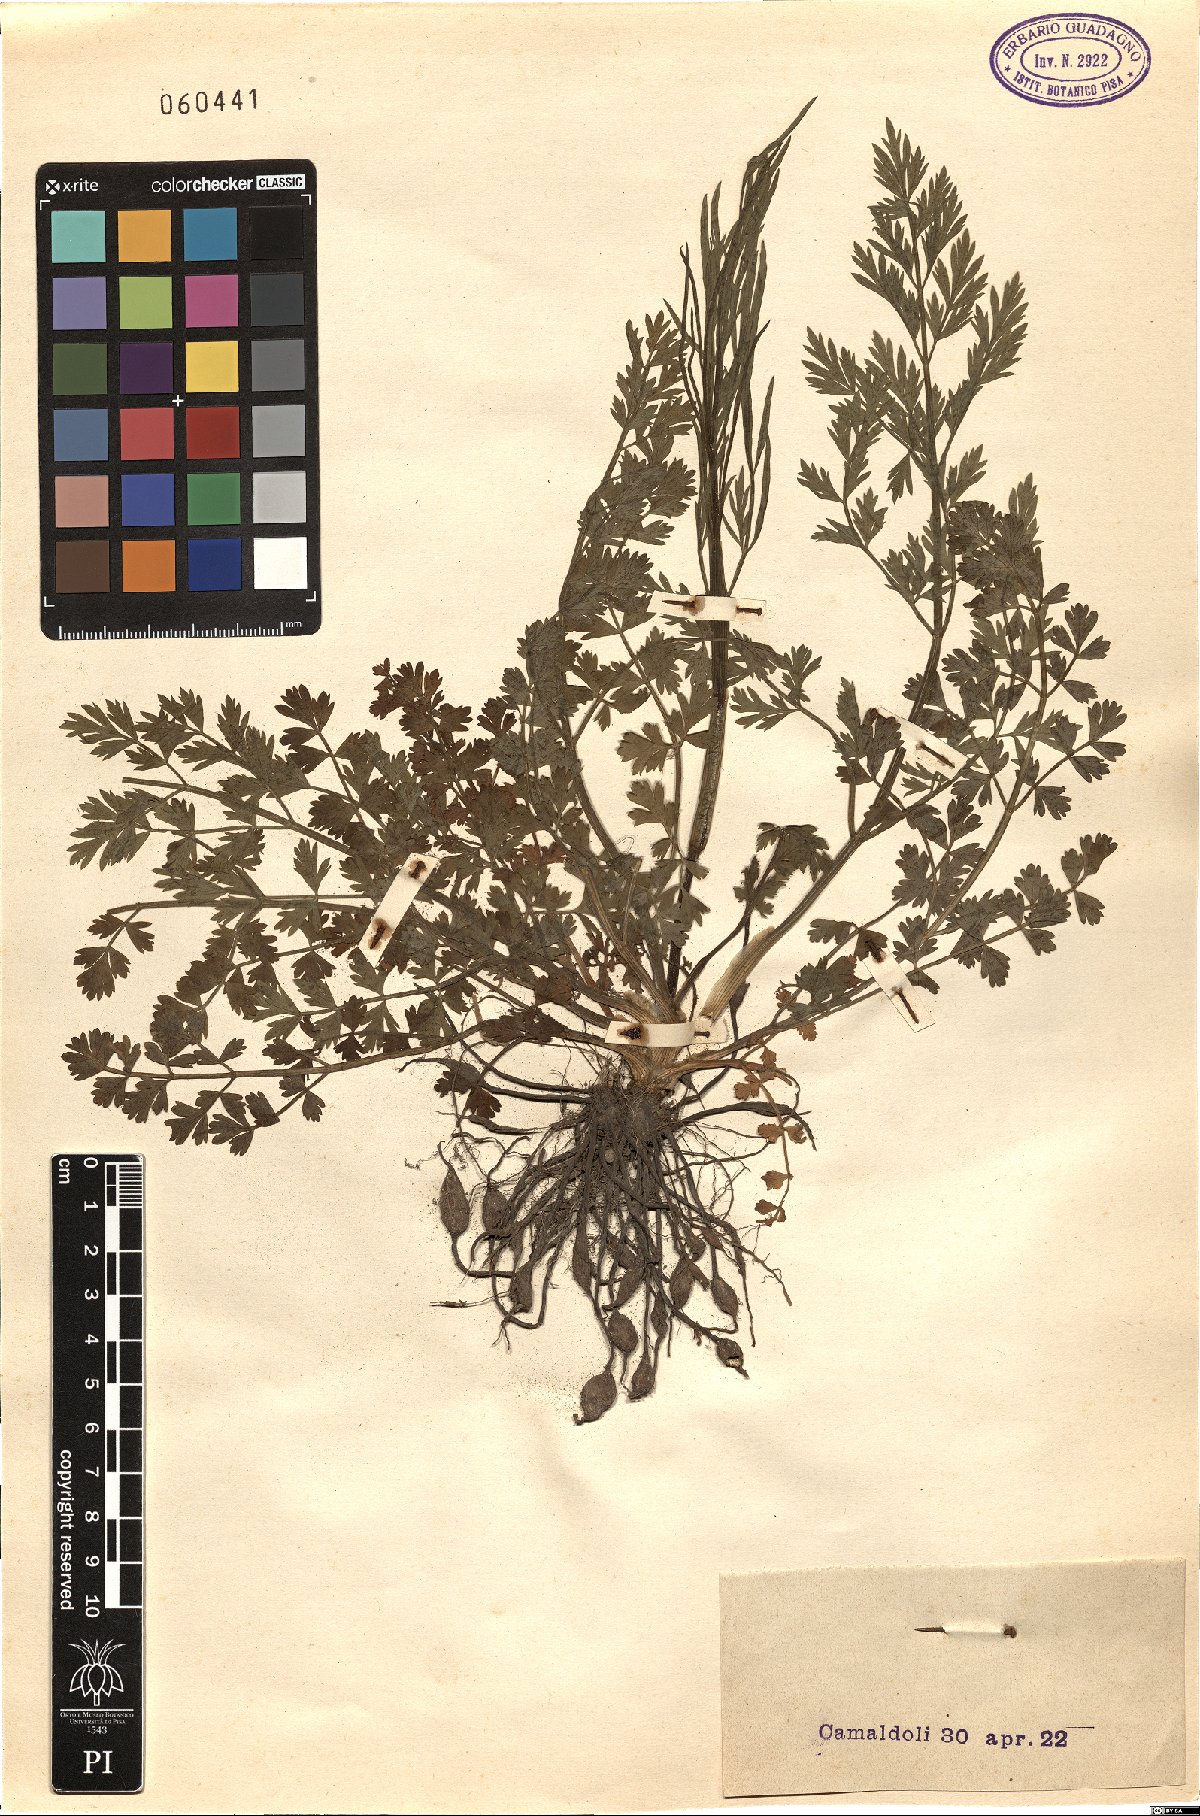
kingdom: Plantae
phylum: Tracheophyta
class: Magnoliopsida
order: Apiales
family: Apiaceae
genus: Oenanthe
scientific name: Oenanthe
